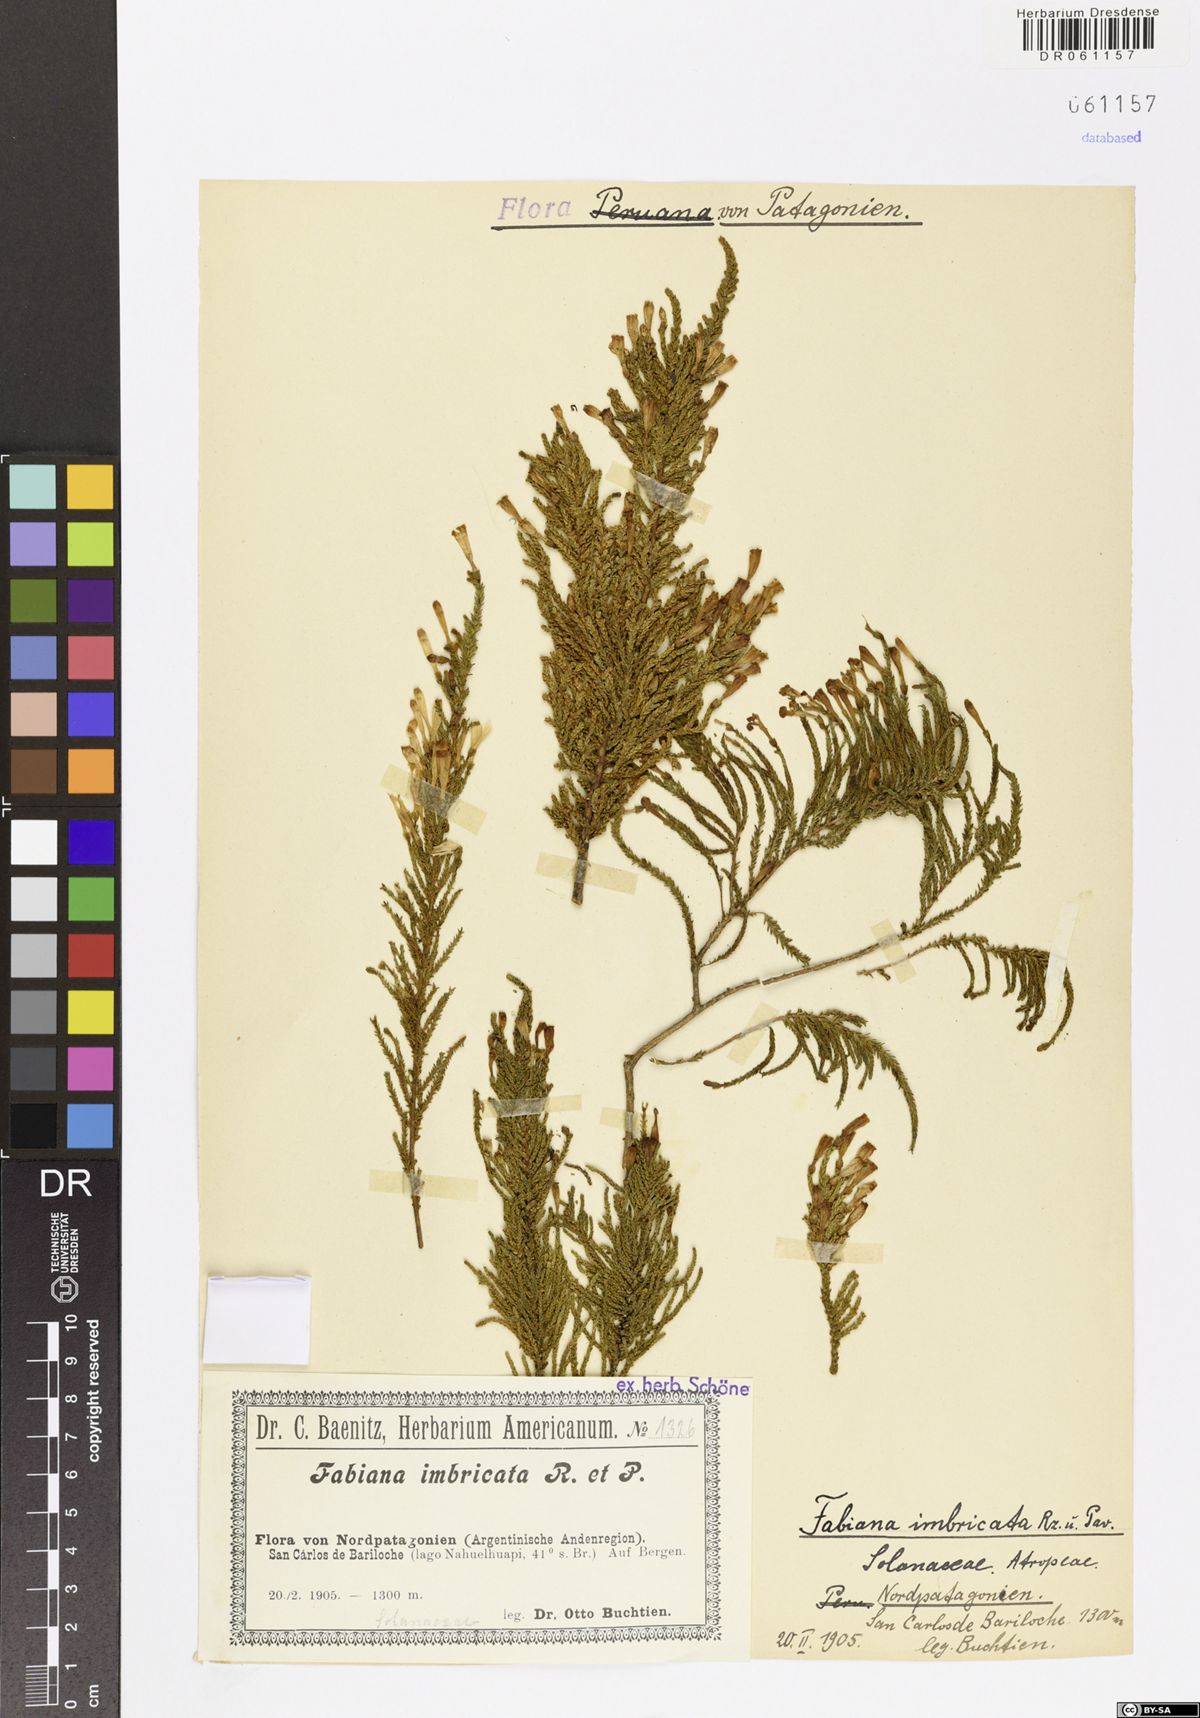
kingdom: Plantae
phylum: Tracheophyta
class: Magnoliopsida
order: Solanales
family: Solanaceae
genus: Fabiana
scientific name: Fabiana imbricata
